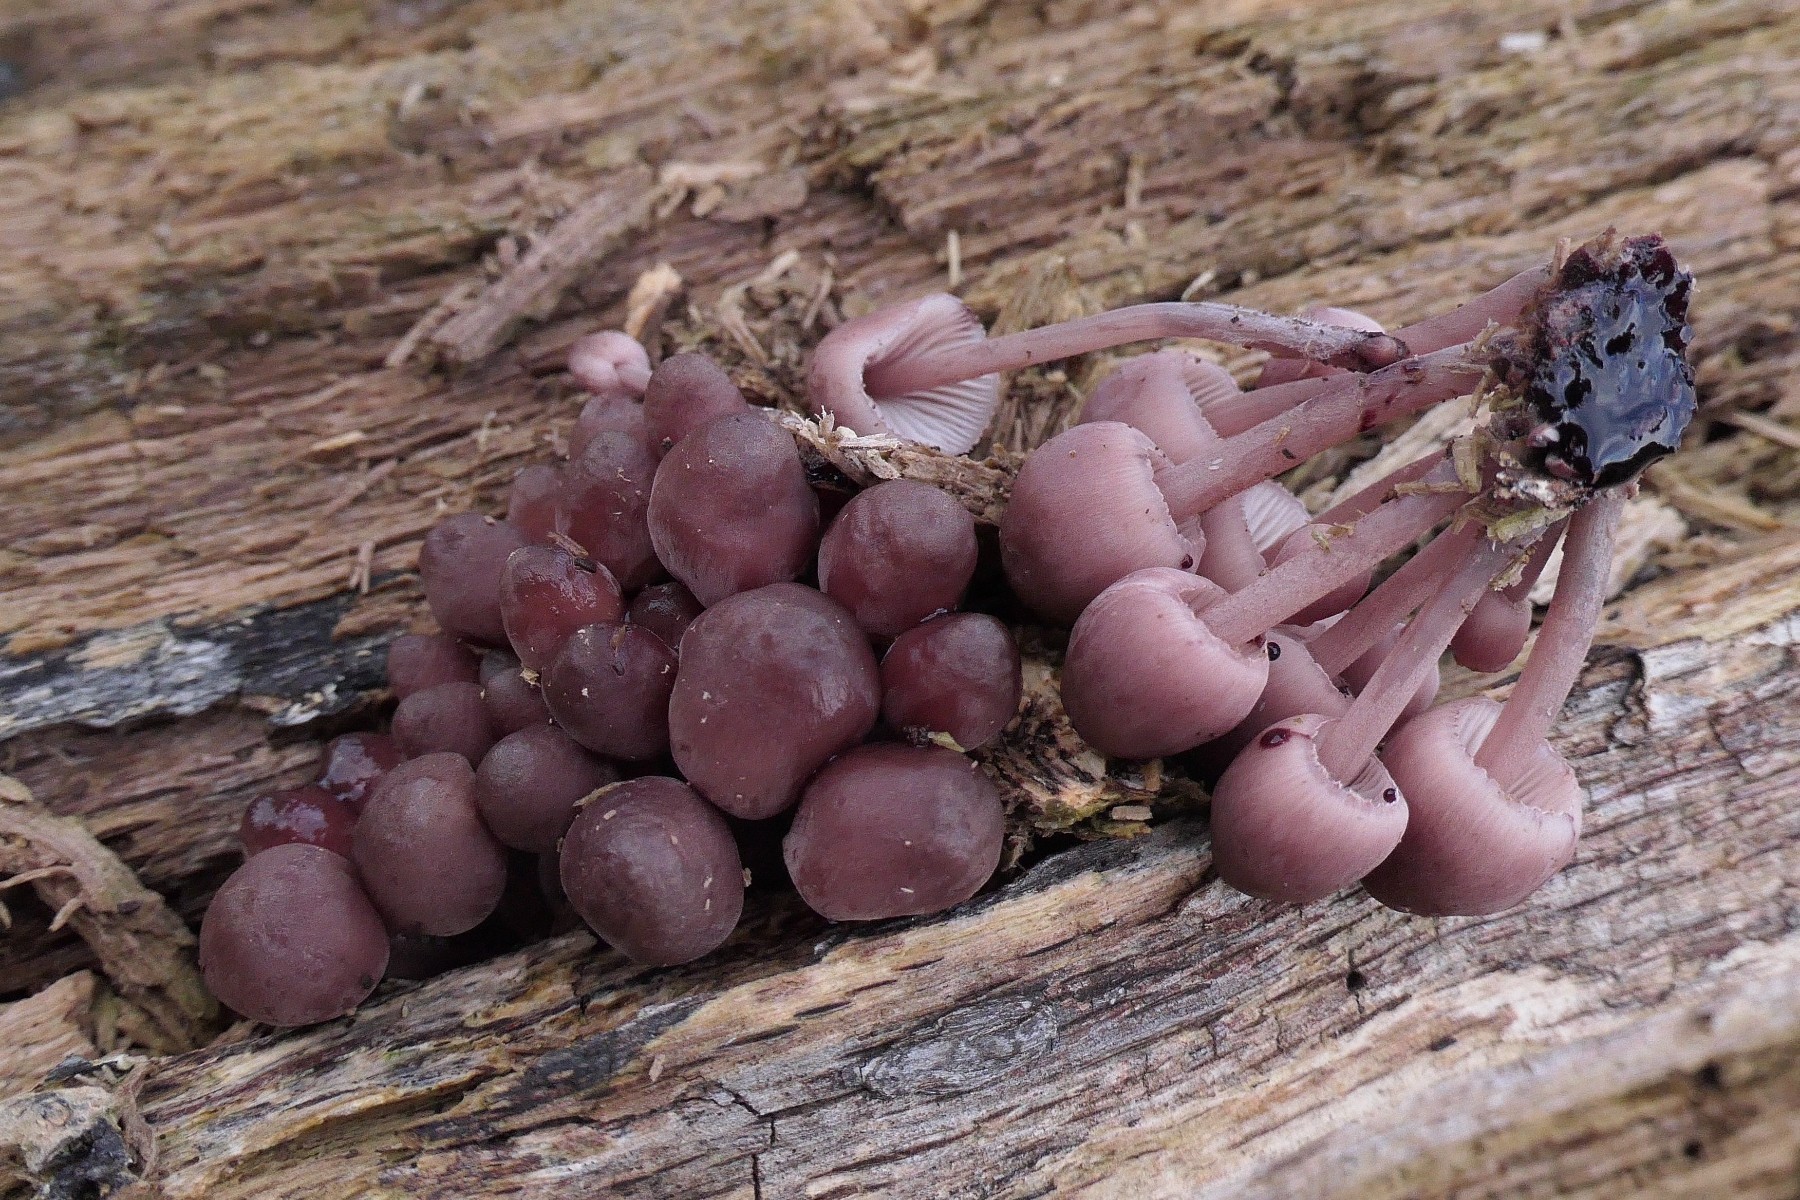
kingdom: Fungi
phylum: Basidiomycota
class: Agaricomycetes
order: Agaricales
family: Mycenaceae
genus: Mycena
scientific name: Mycena haematopus
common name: blødende huesvamp
